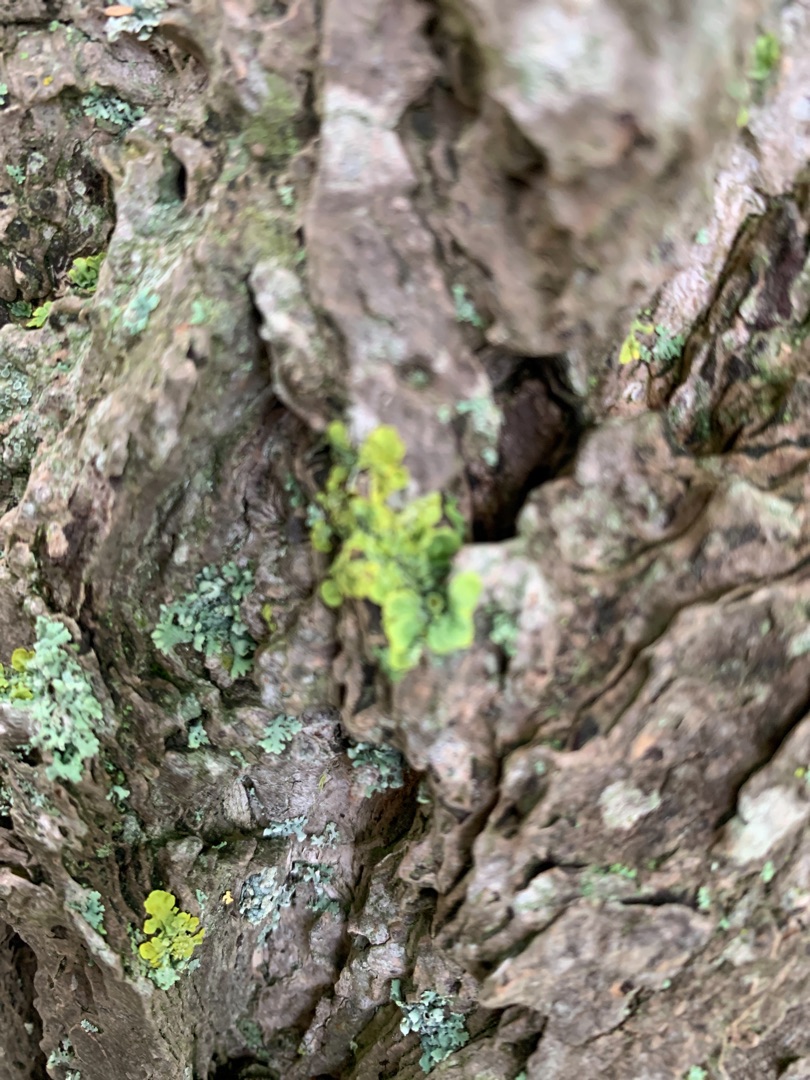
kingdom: Fungi
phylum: Ascomycota
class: Lecanoromycetes
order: Teloschistales
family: Teloschistaceae
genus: Xanthoria
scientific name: Xanthoria parietina
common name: Almindelig væggelav
